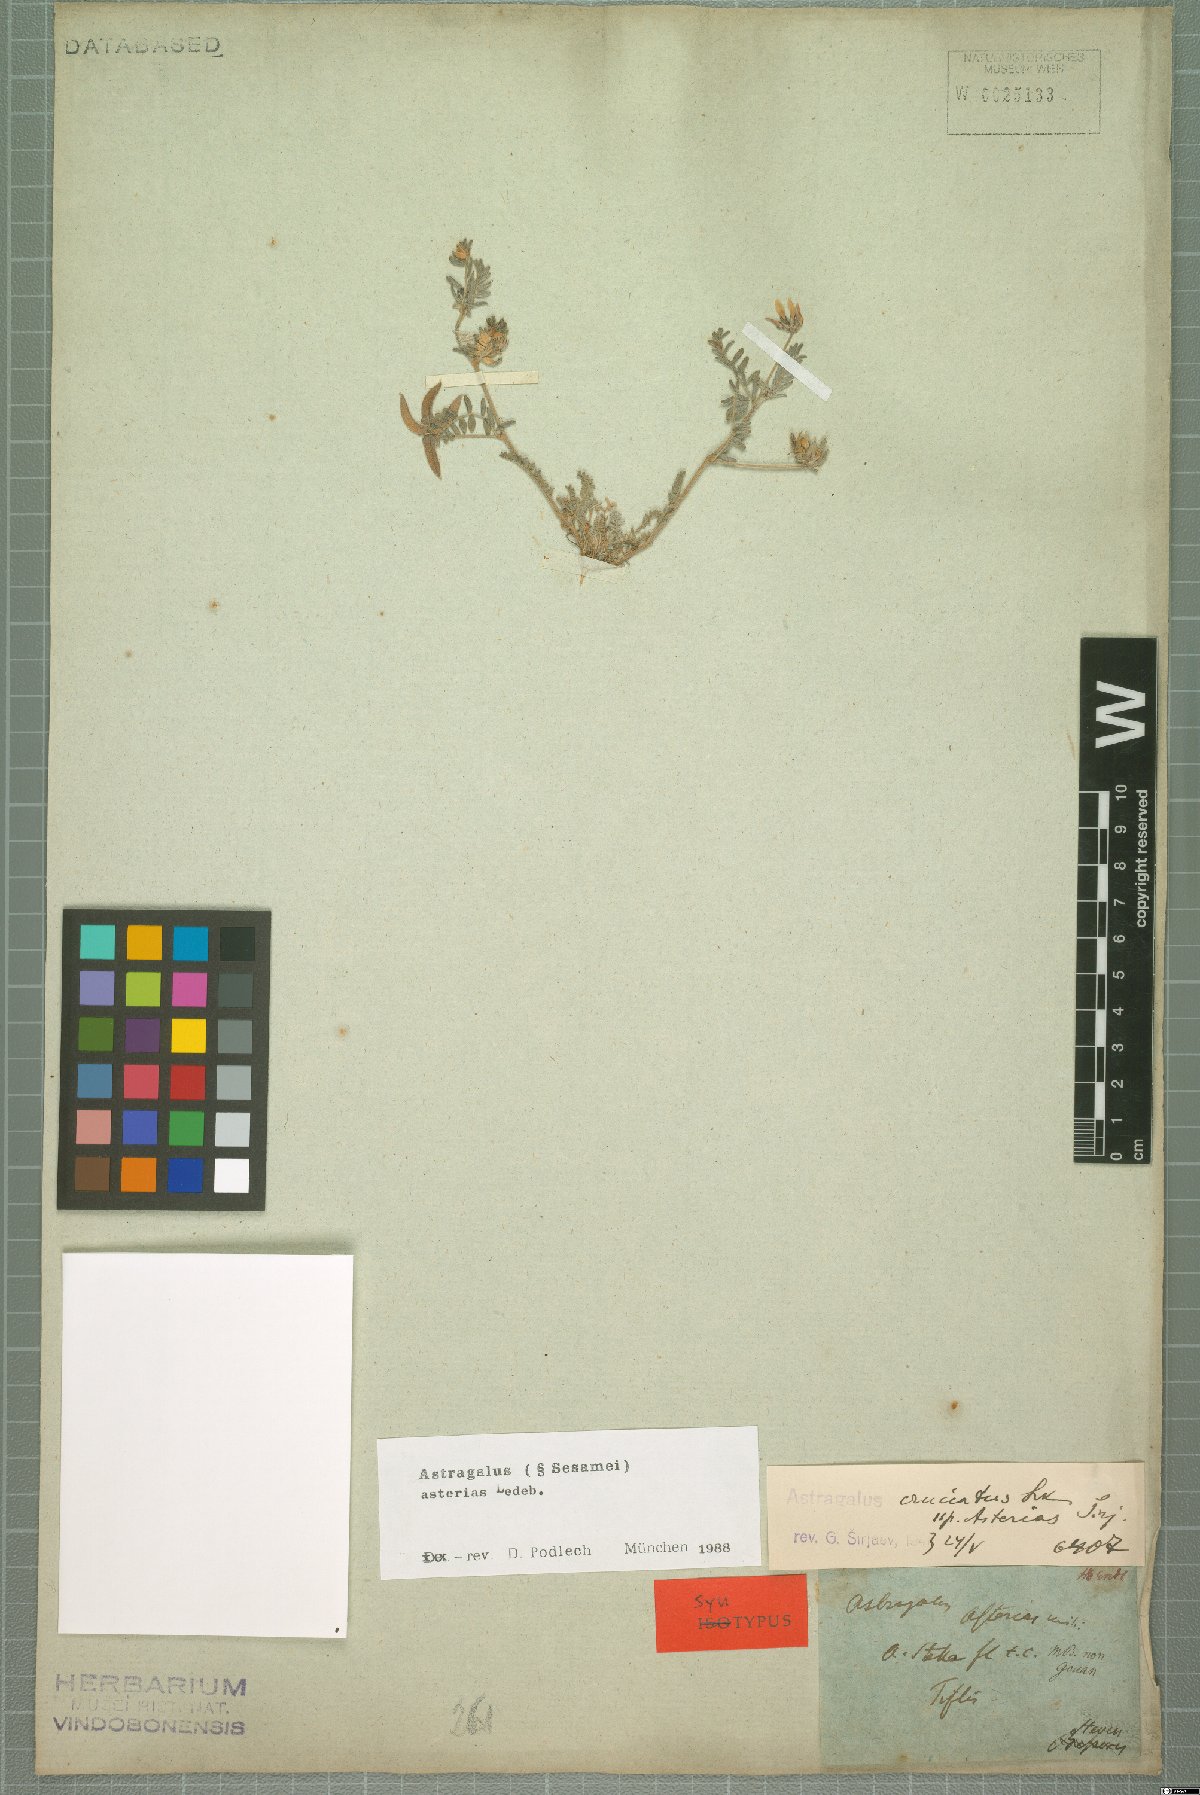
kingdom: Plantae
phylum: Tracheophyta
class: Magnoliopsida
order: Fabales
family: Fabaceae
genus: Astragalus
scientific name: Astragalus asterias
